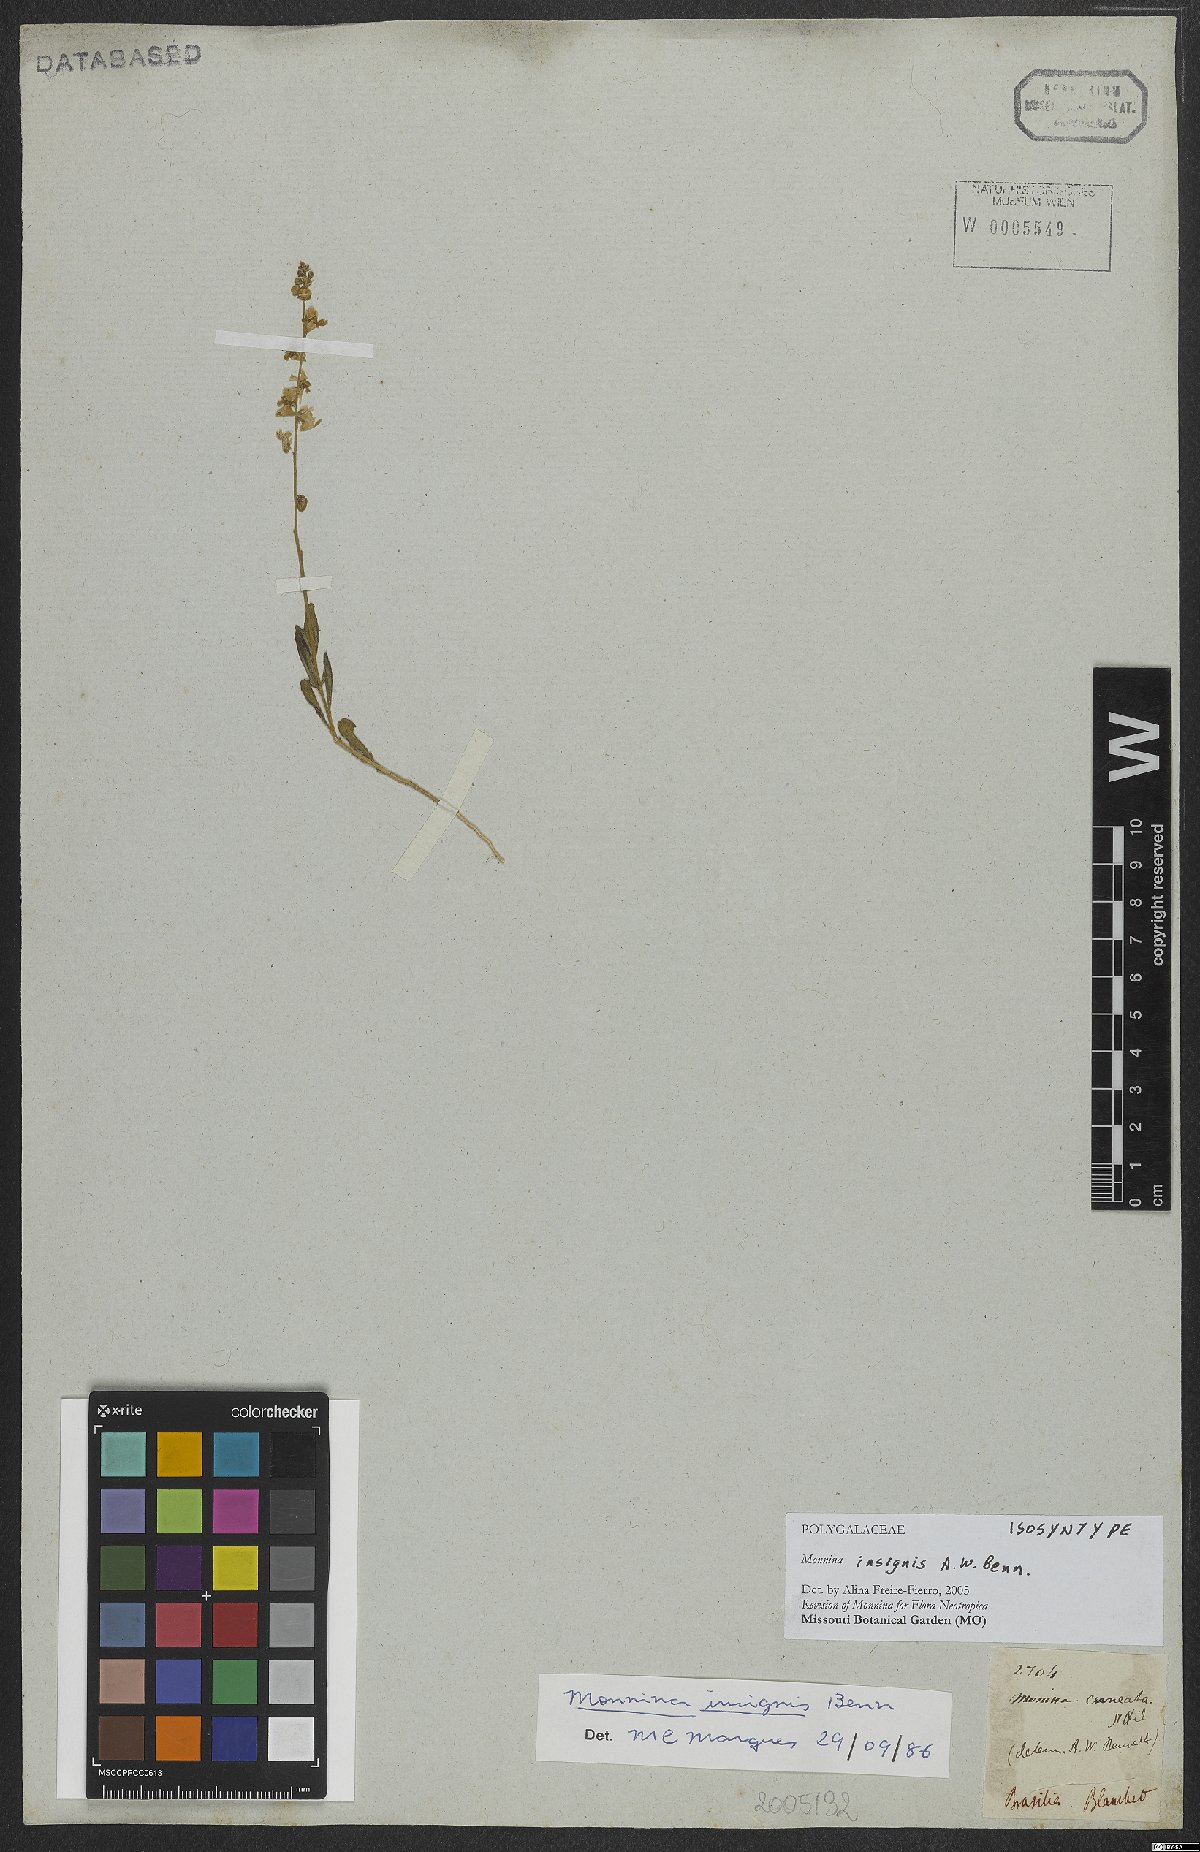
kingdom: Plantae
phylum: Tracheophyta
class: Magnoliopsida
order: Fabales
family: Polygalaceae
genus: Ancylotropis
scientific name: Ancylotropis insignis
